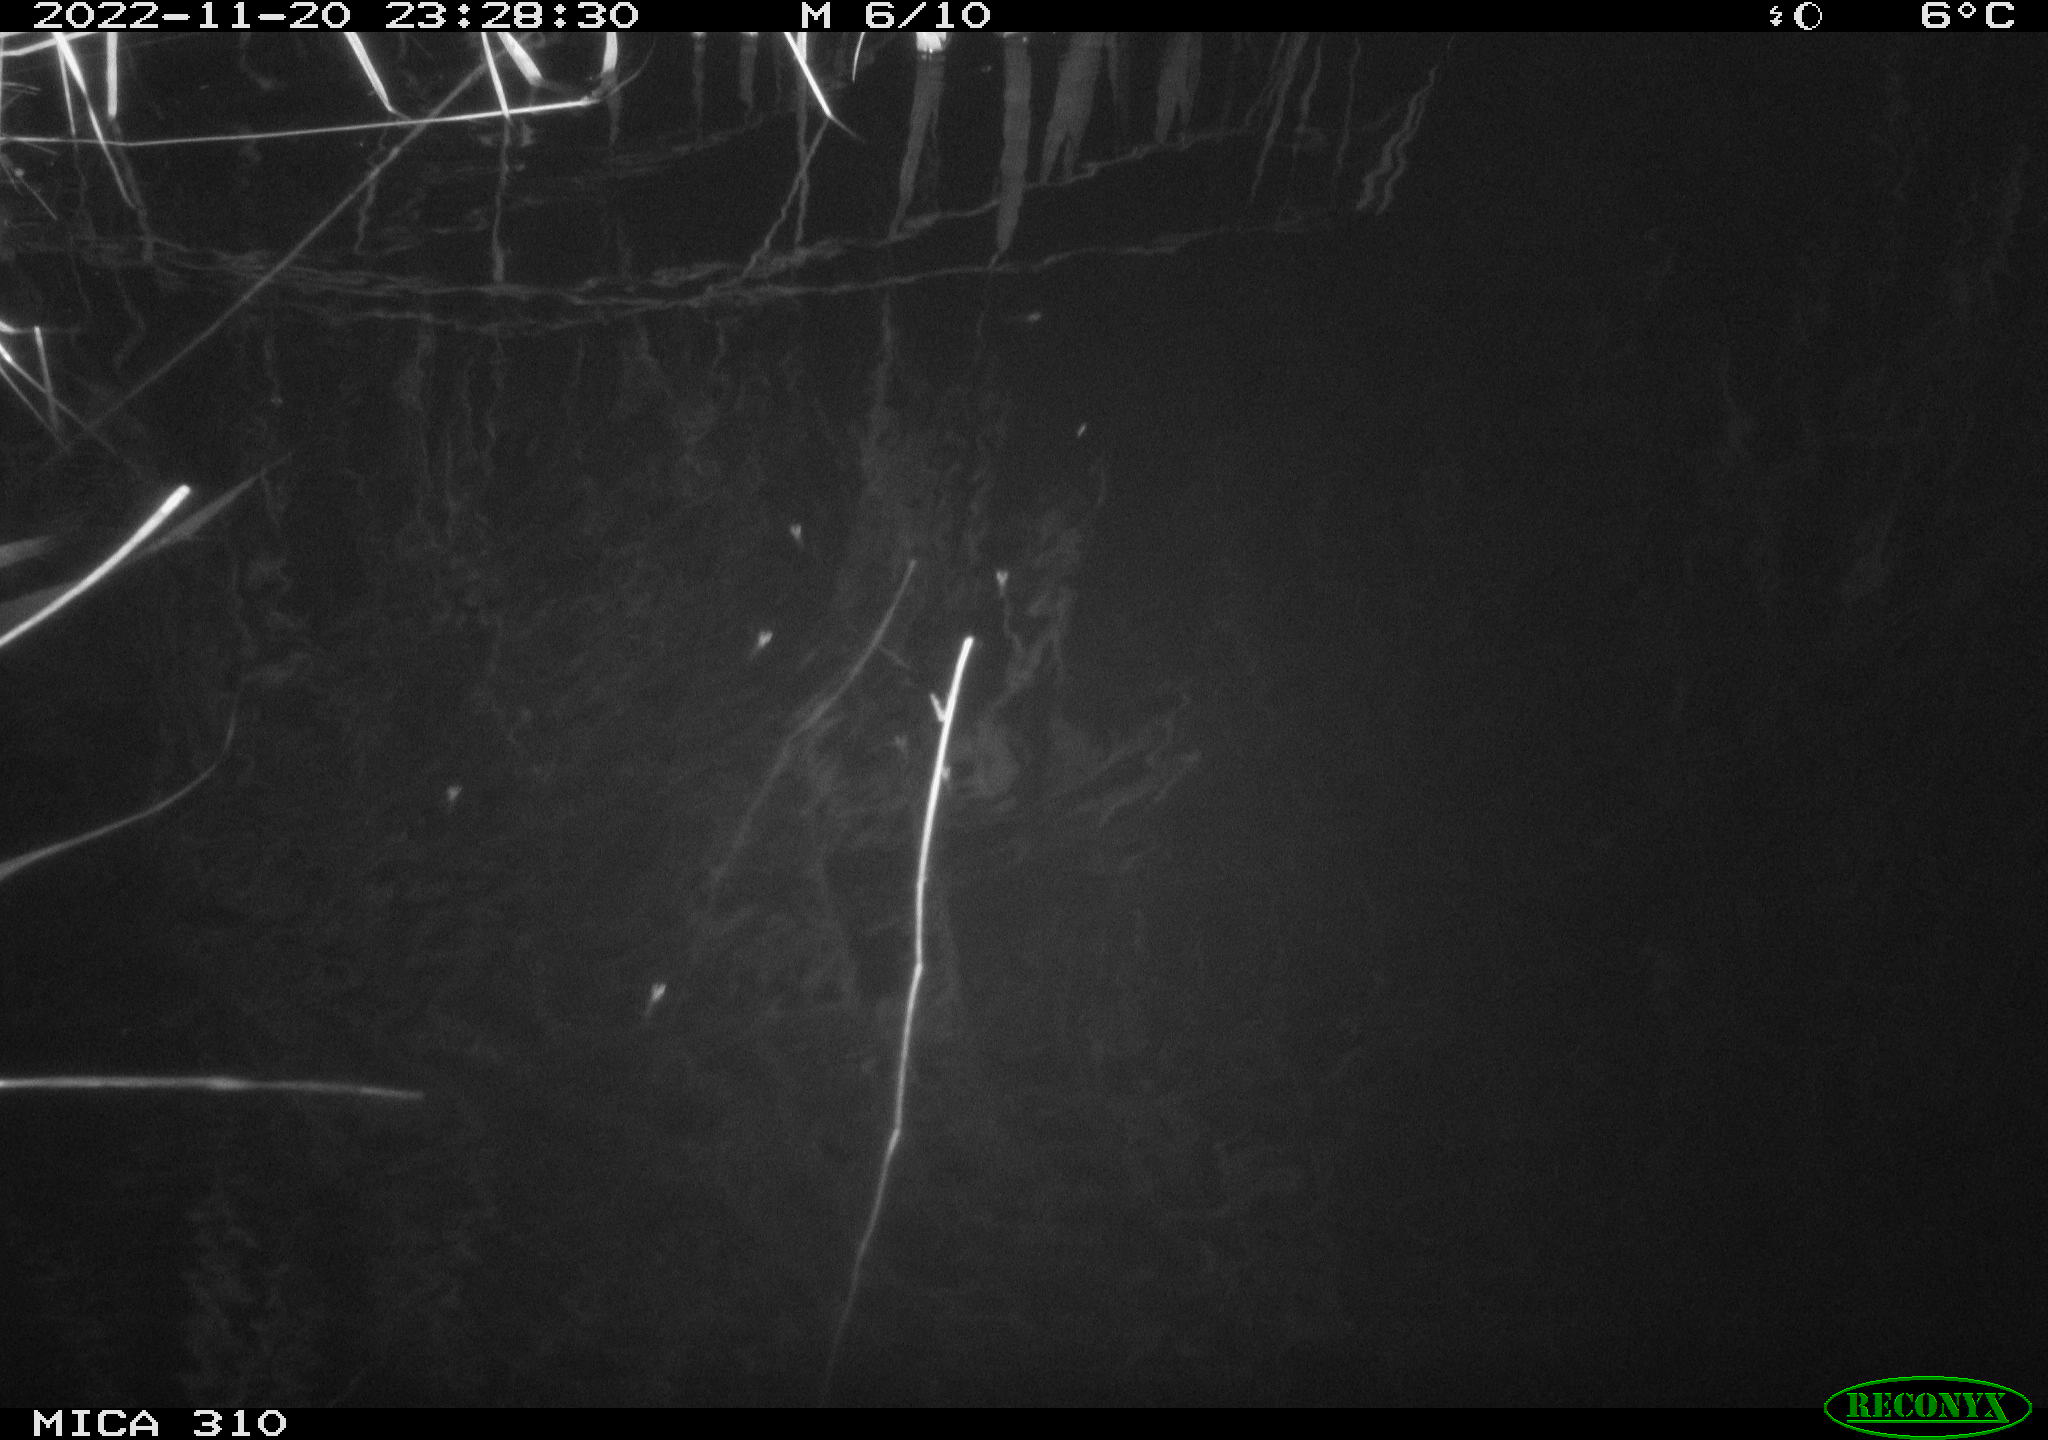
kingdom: Animalia
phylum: Chordata
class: Mammalia
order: Rodentia
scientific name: Rodentia
